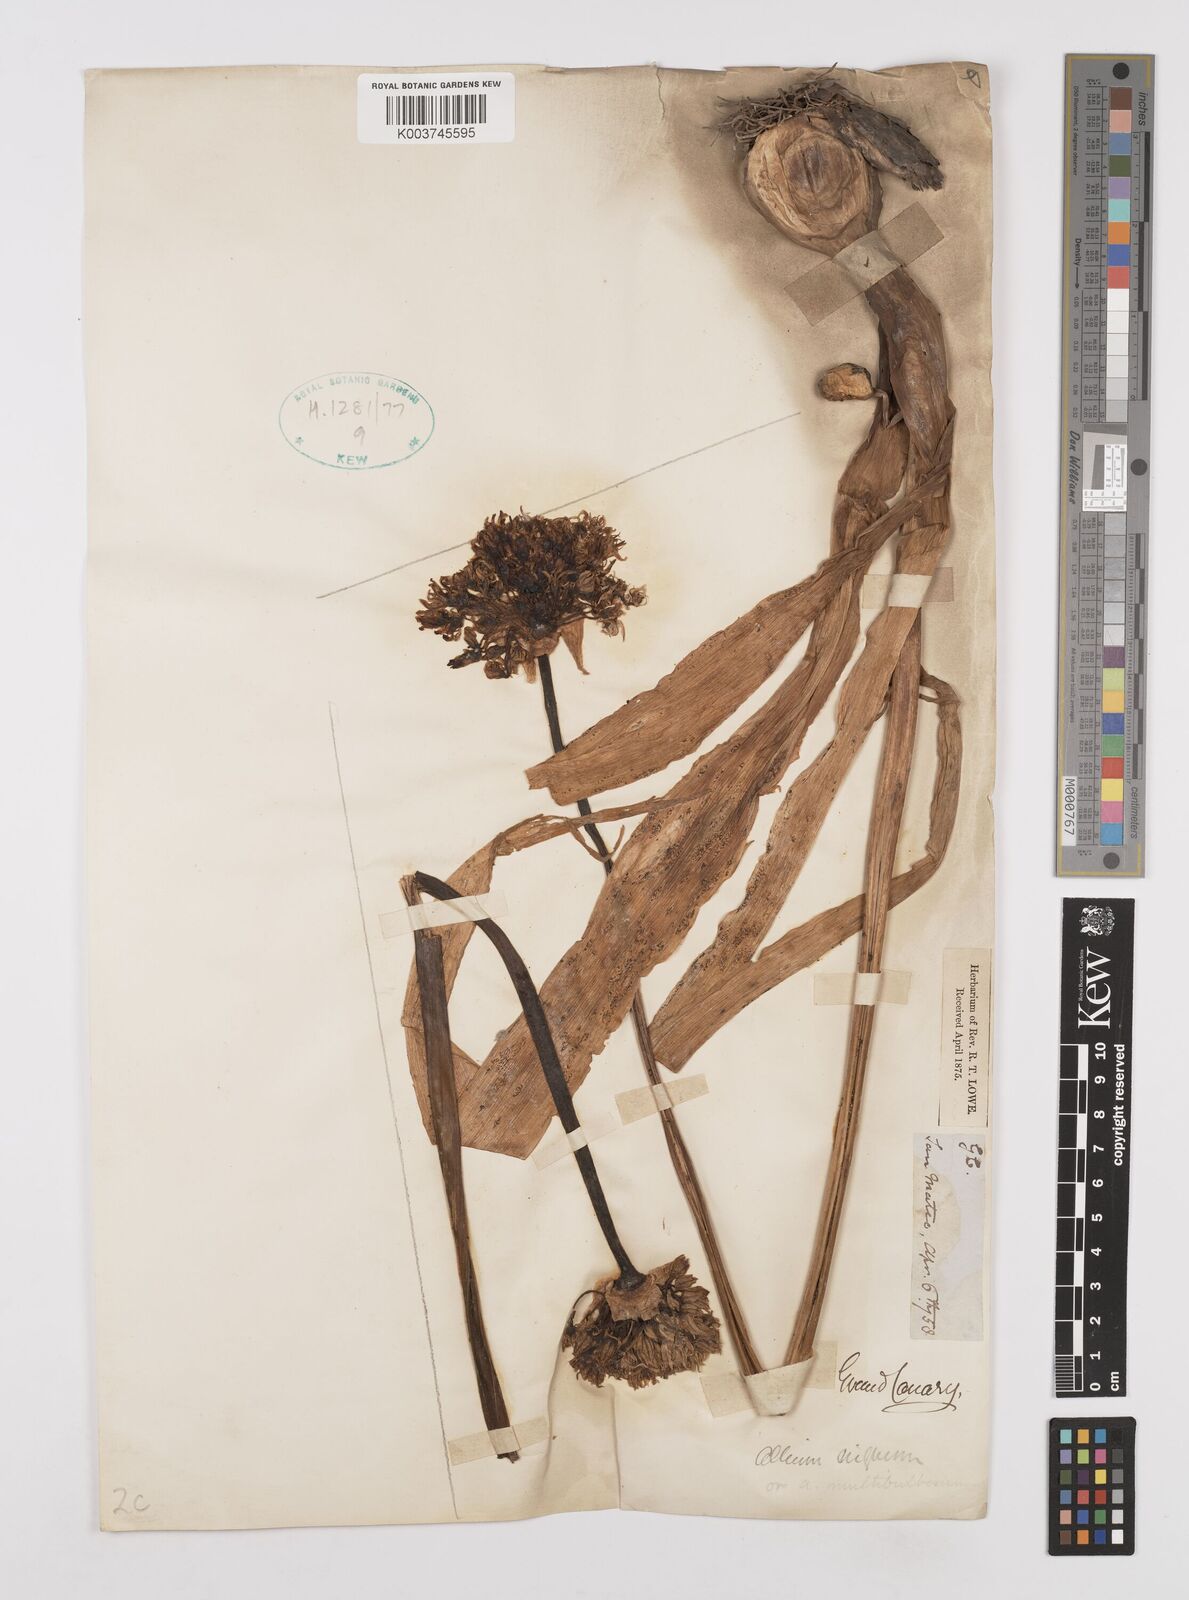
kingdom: Plantae
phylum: Tracheophyta
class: Liliopsida
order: Asparagales
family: Amaryllidaceae
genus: Allium
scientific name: Allium nigrum
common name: Black garlic
